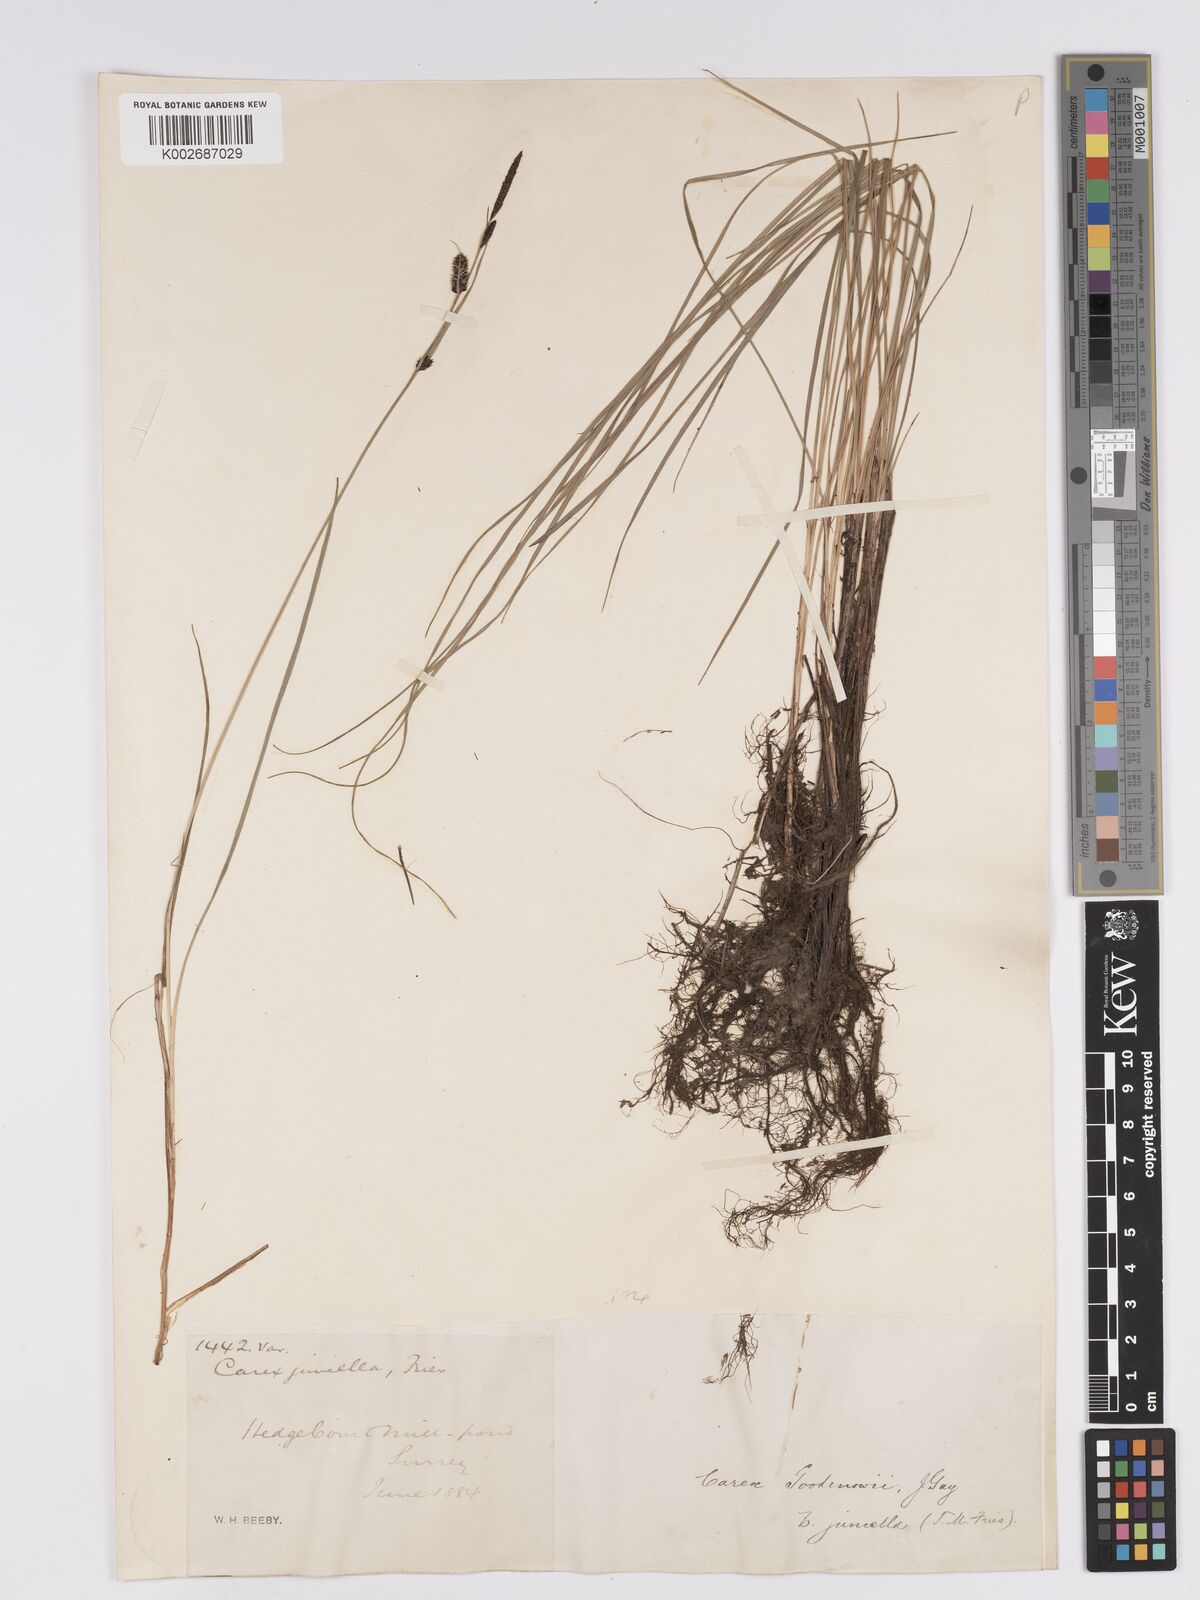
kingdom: Plantae
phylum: Tracheophyta
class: Liliopsida
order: Poales
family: Cyperaceae
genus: Carex
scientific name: Carex nigra
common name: Common sedge
